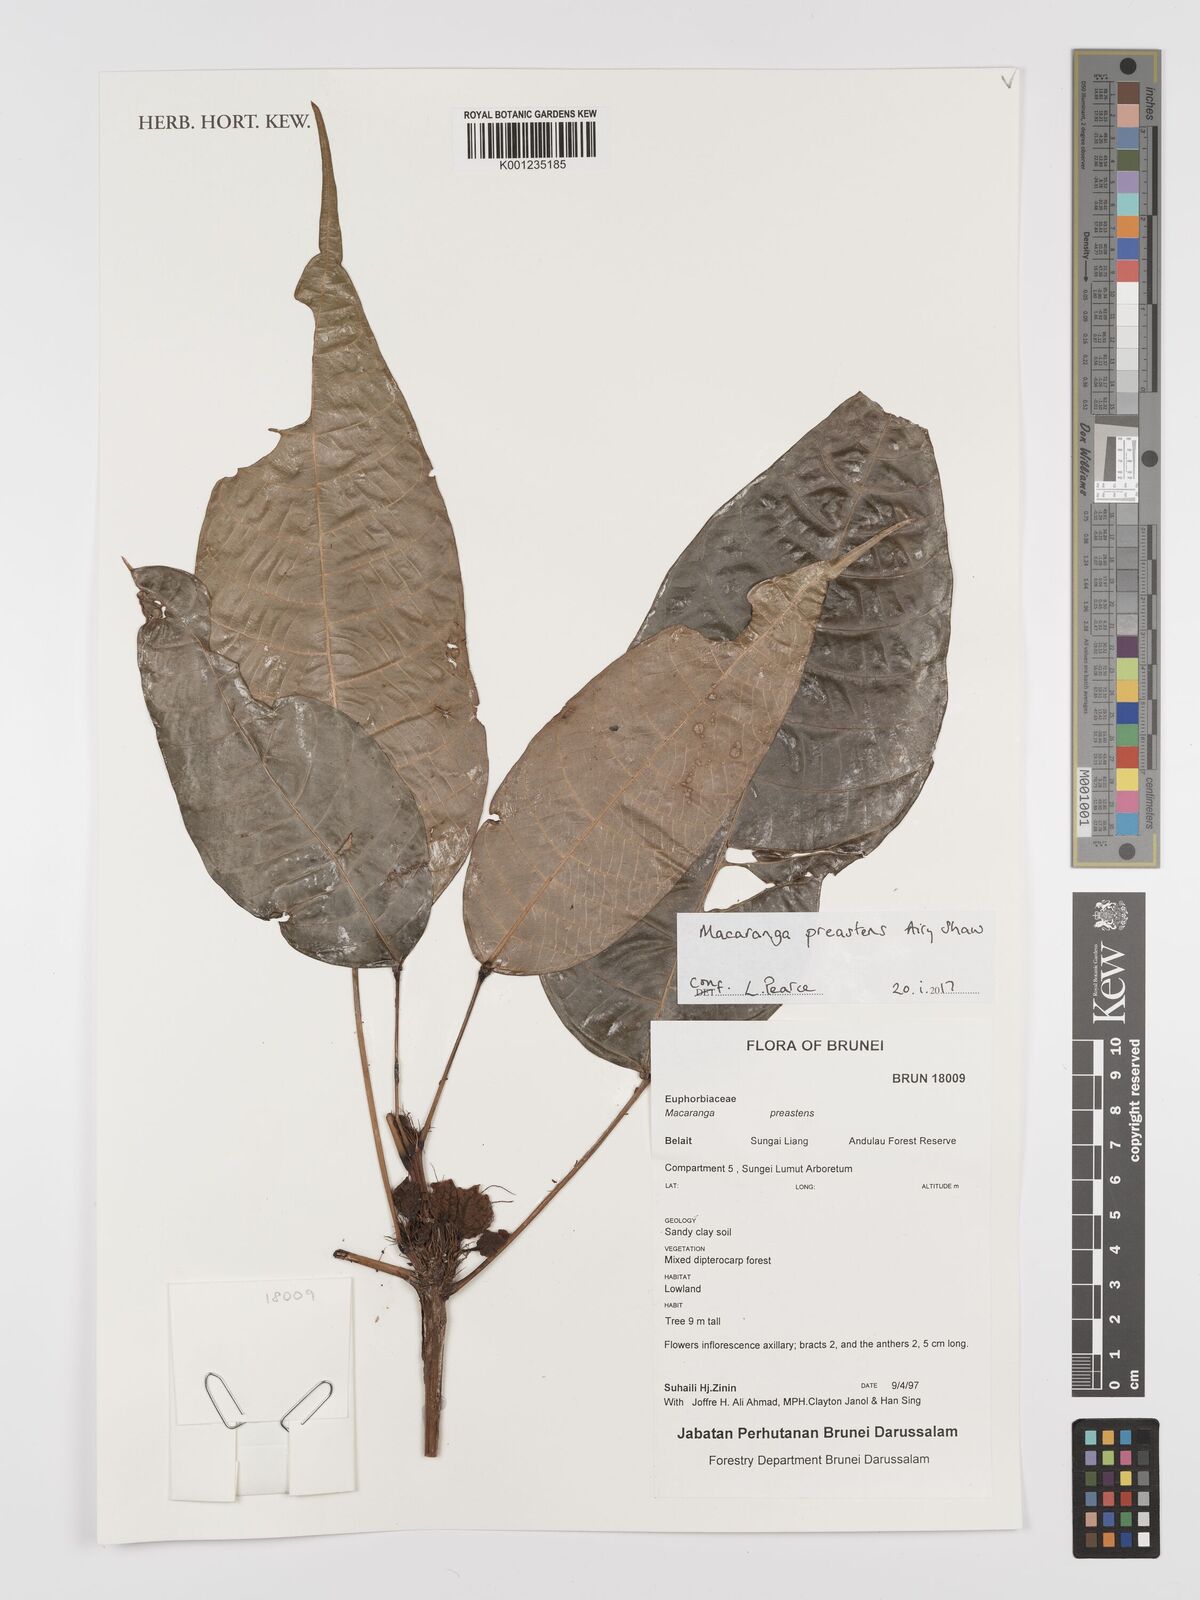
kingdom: Plantae
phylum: Tracheophyta
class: Magnoliopsida
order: Malpighiales
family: Euphorbiaceae
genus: Macaranga
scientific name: Macaranga
